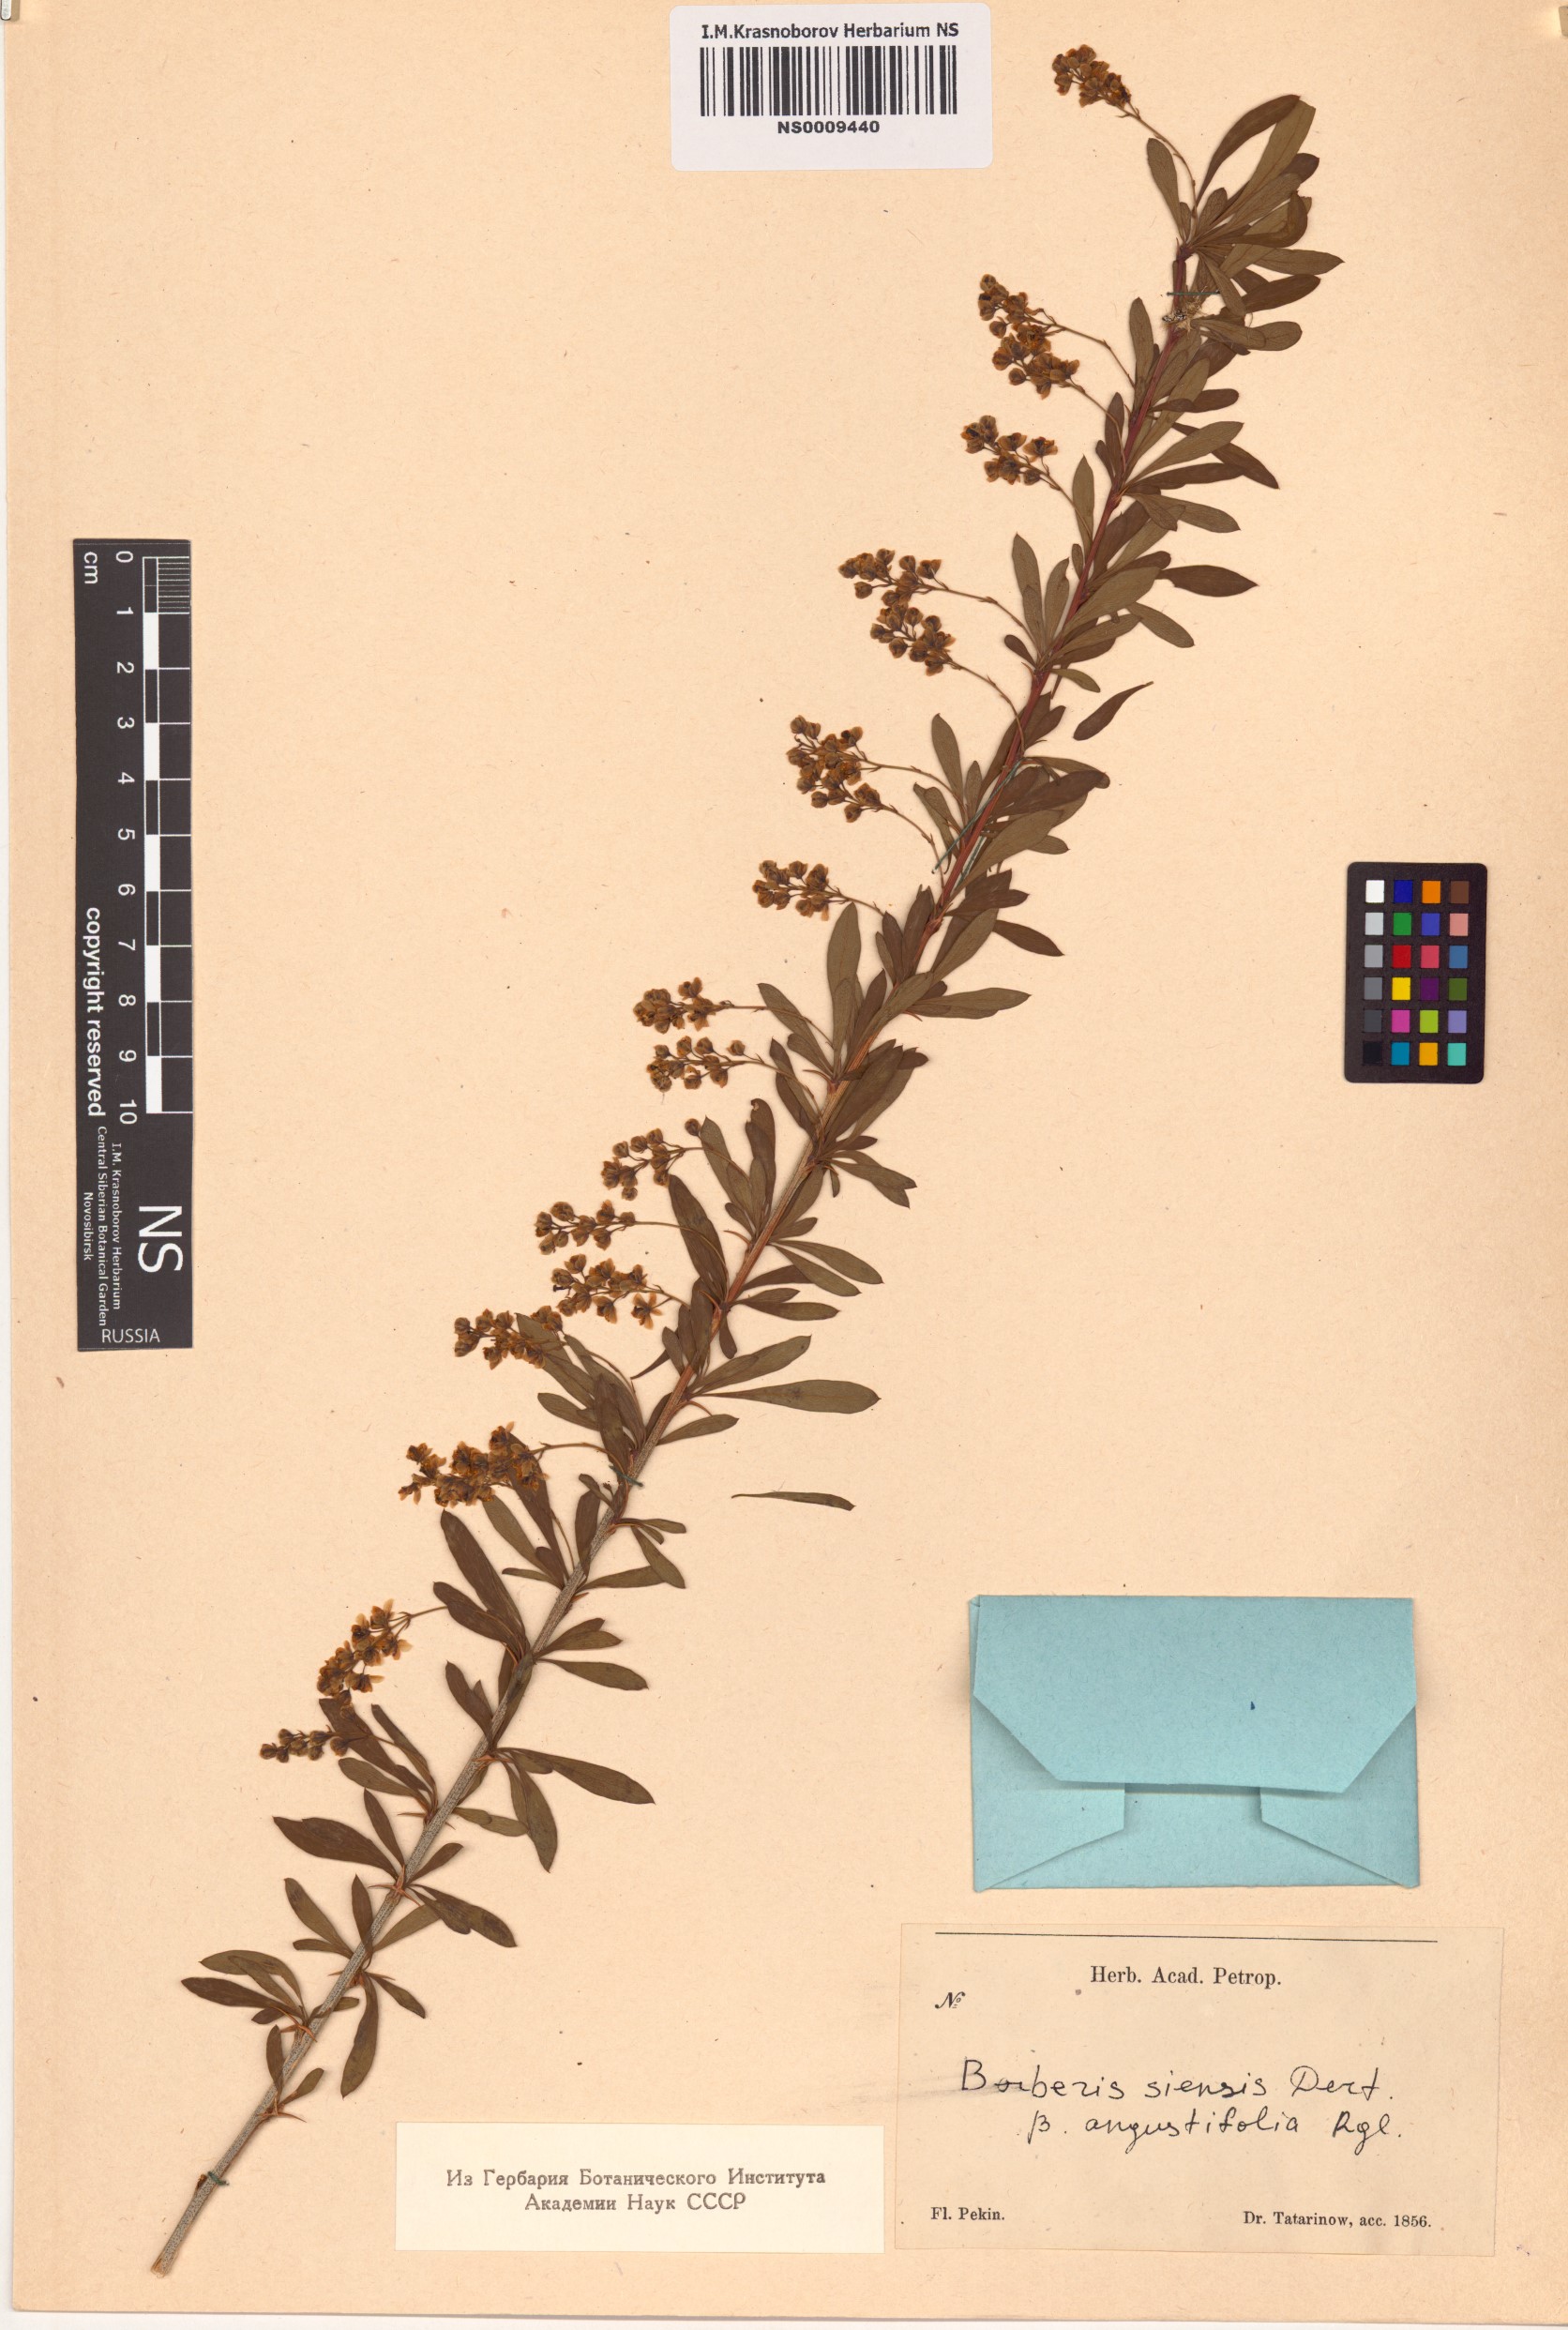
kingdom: Plantae
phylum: Tracheophyta
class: Magnoliopsida
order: Ranunculales
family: Berberidaceae
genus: Berberis
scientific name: Berberis chinensis
